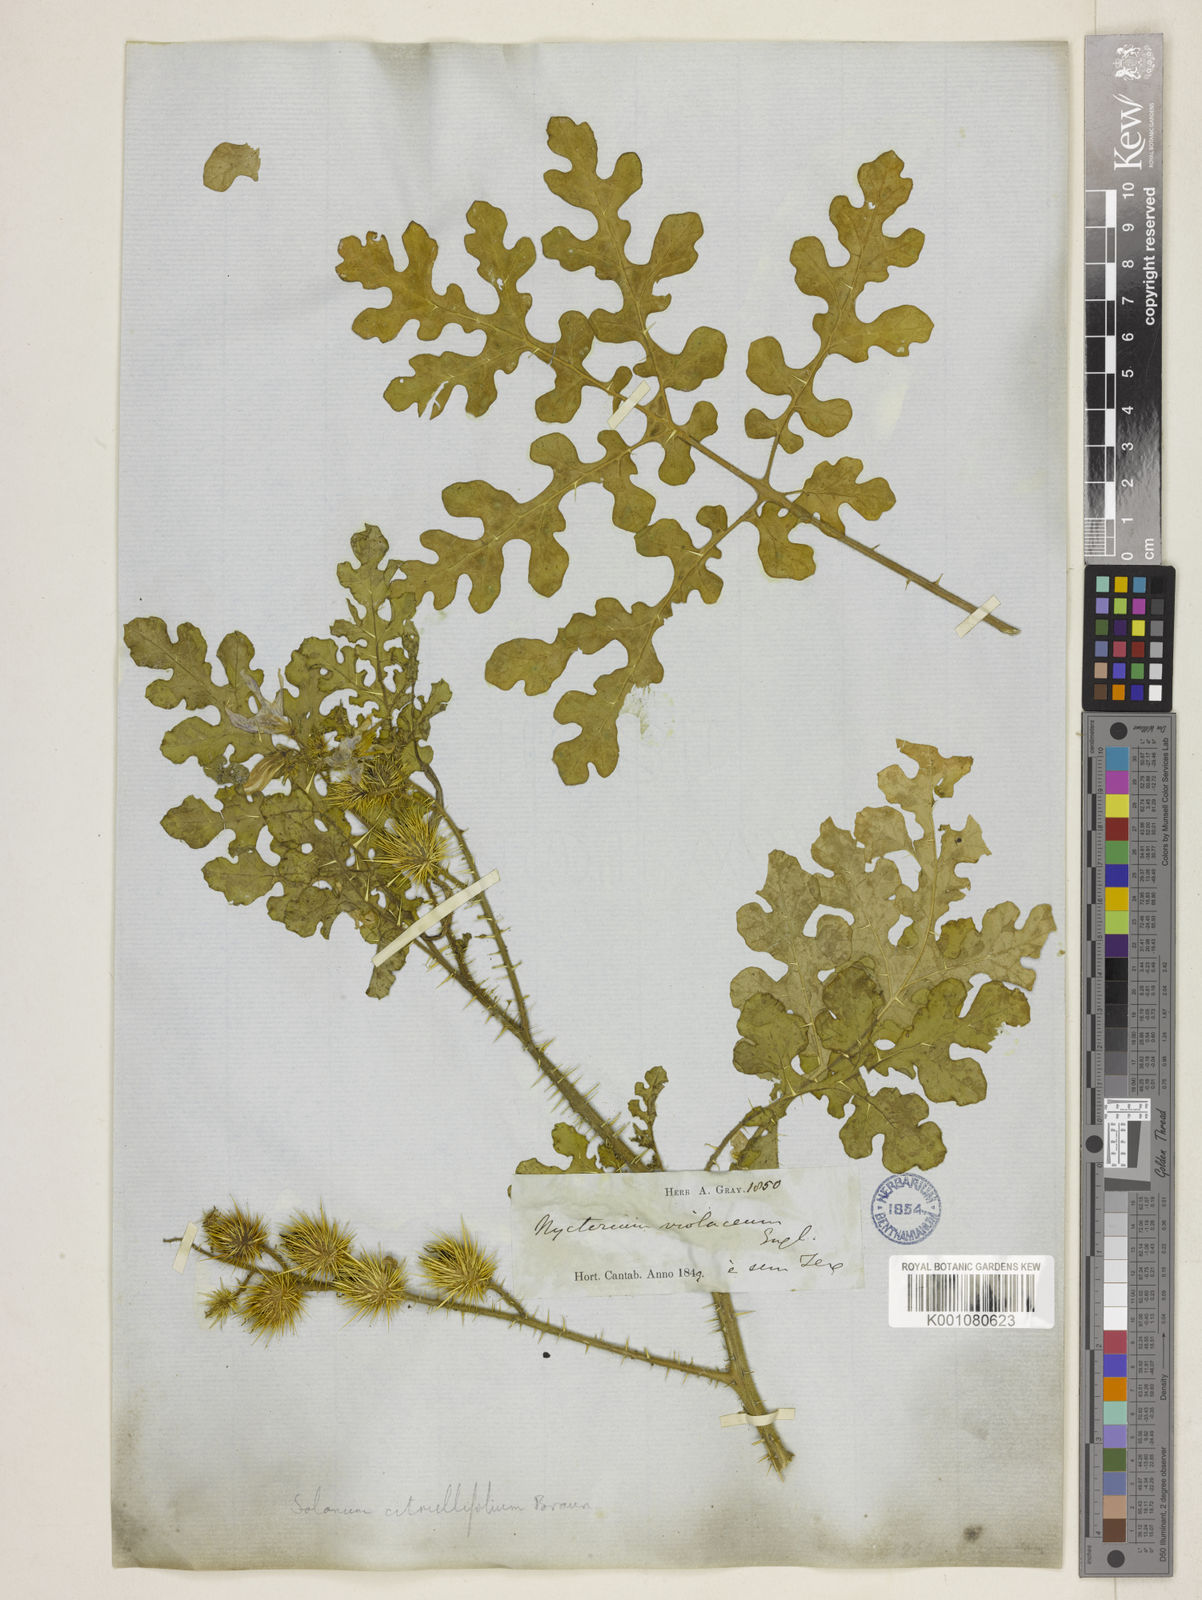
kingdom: Plantae
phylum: Tracheophyta
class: Magnoliopsida
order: Solanales
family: Solanaceae
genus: Solanum
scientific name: Solanum heterodoxum
